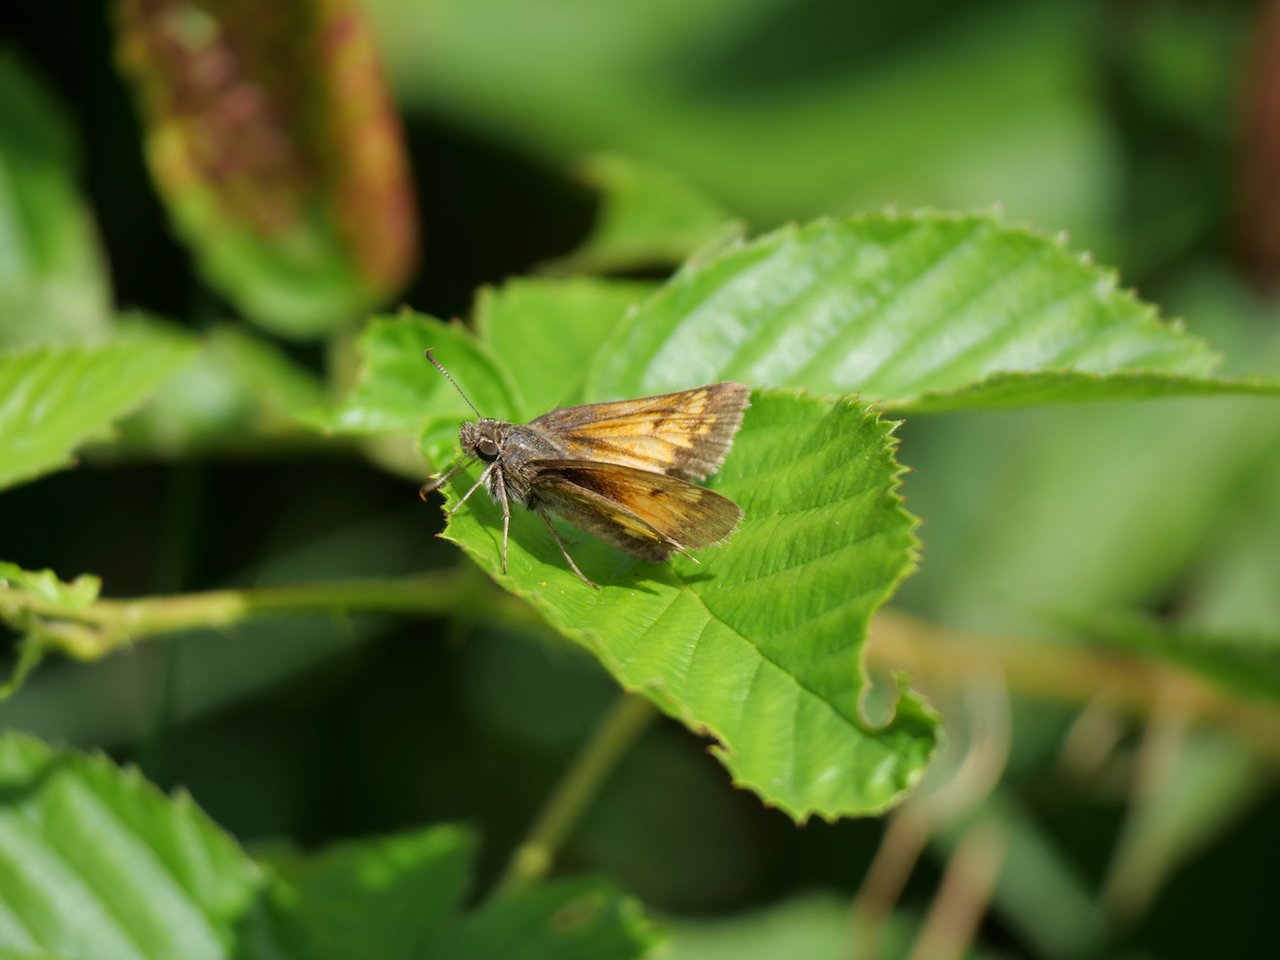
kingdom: Animalia
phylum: Arthropoda
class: Insecta
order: Lepidoptera
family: Hesperiidae
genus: Lon
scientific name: Lon hobomok
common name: Hobomok Skipper
